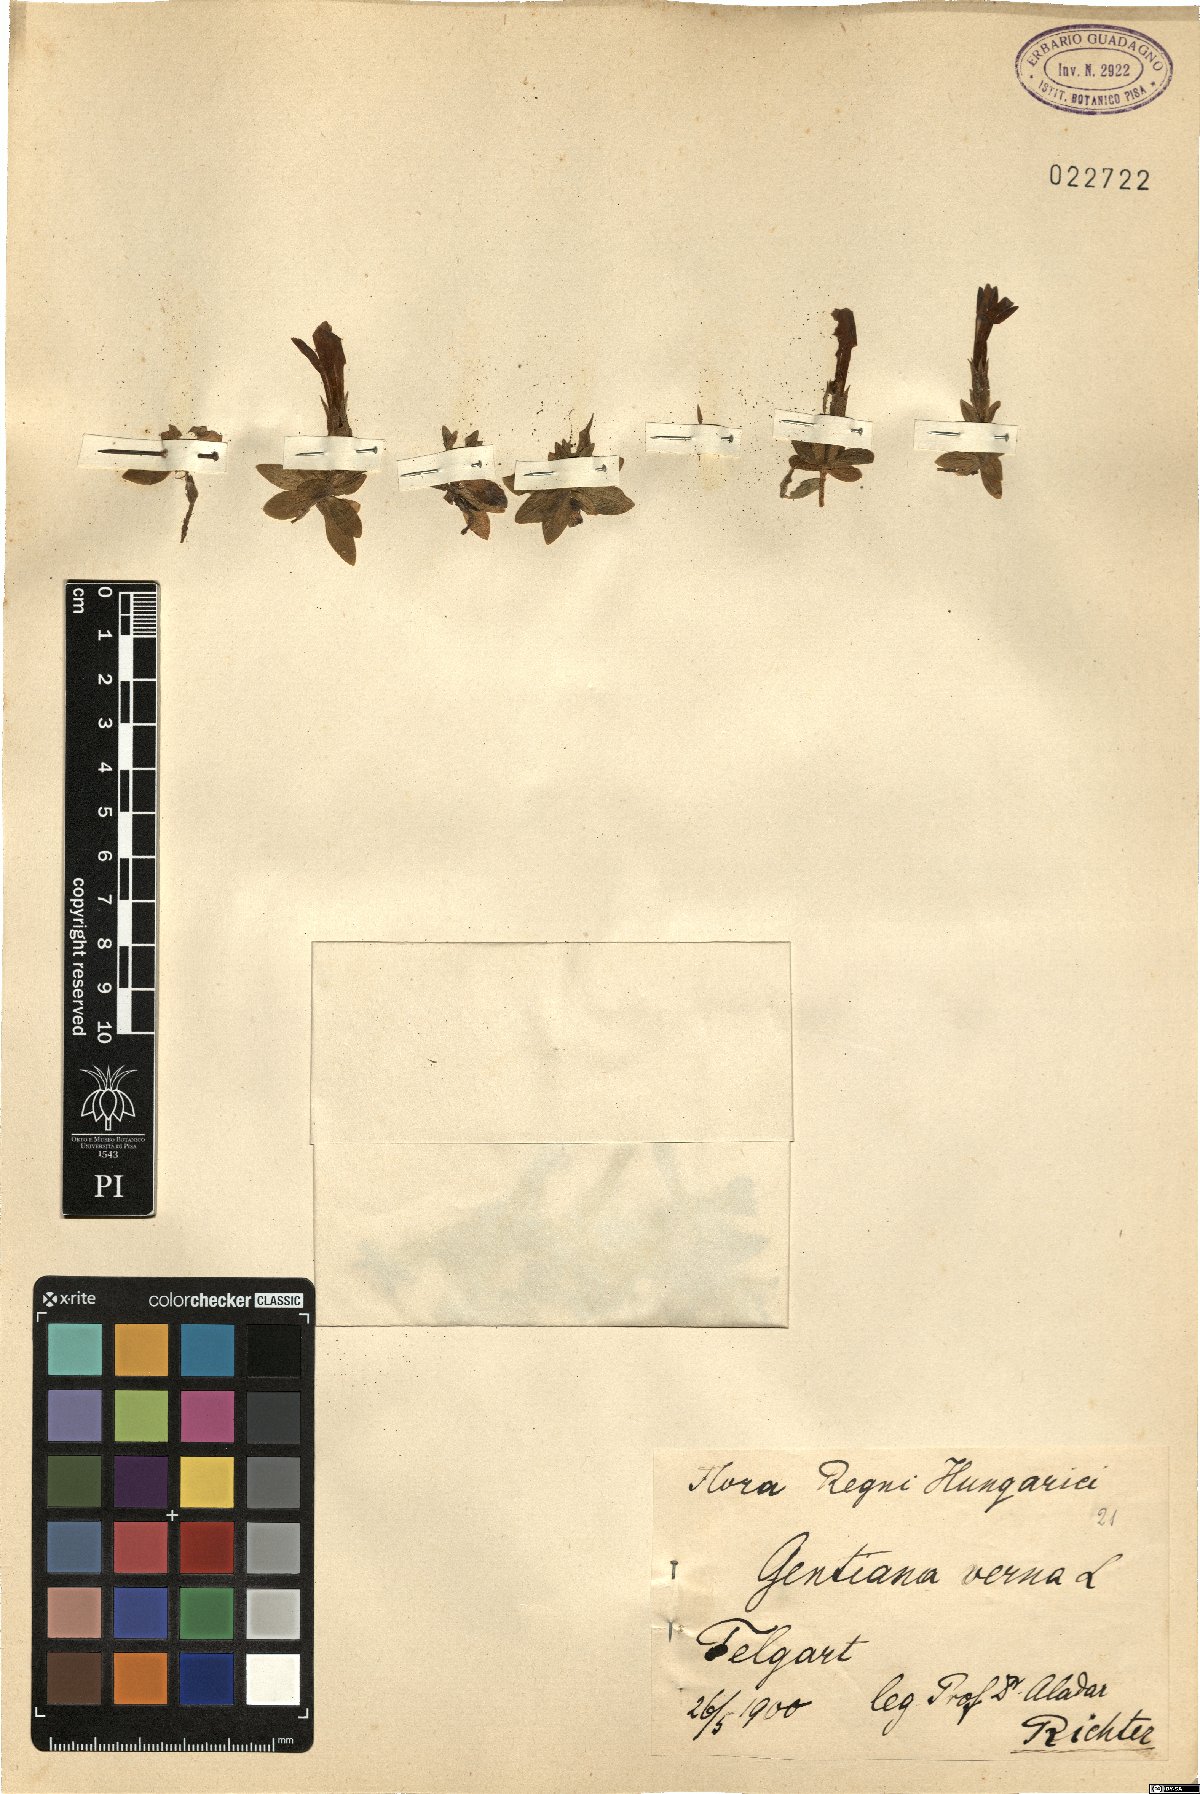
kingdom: Plantae
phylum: Tracheophyta
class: Magnoliopsida
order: Gentianales
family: Gentianaceae
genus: Gentiana
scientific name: Gentiana verna
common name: Spring gentian
